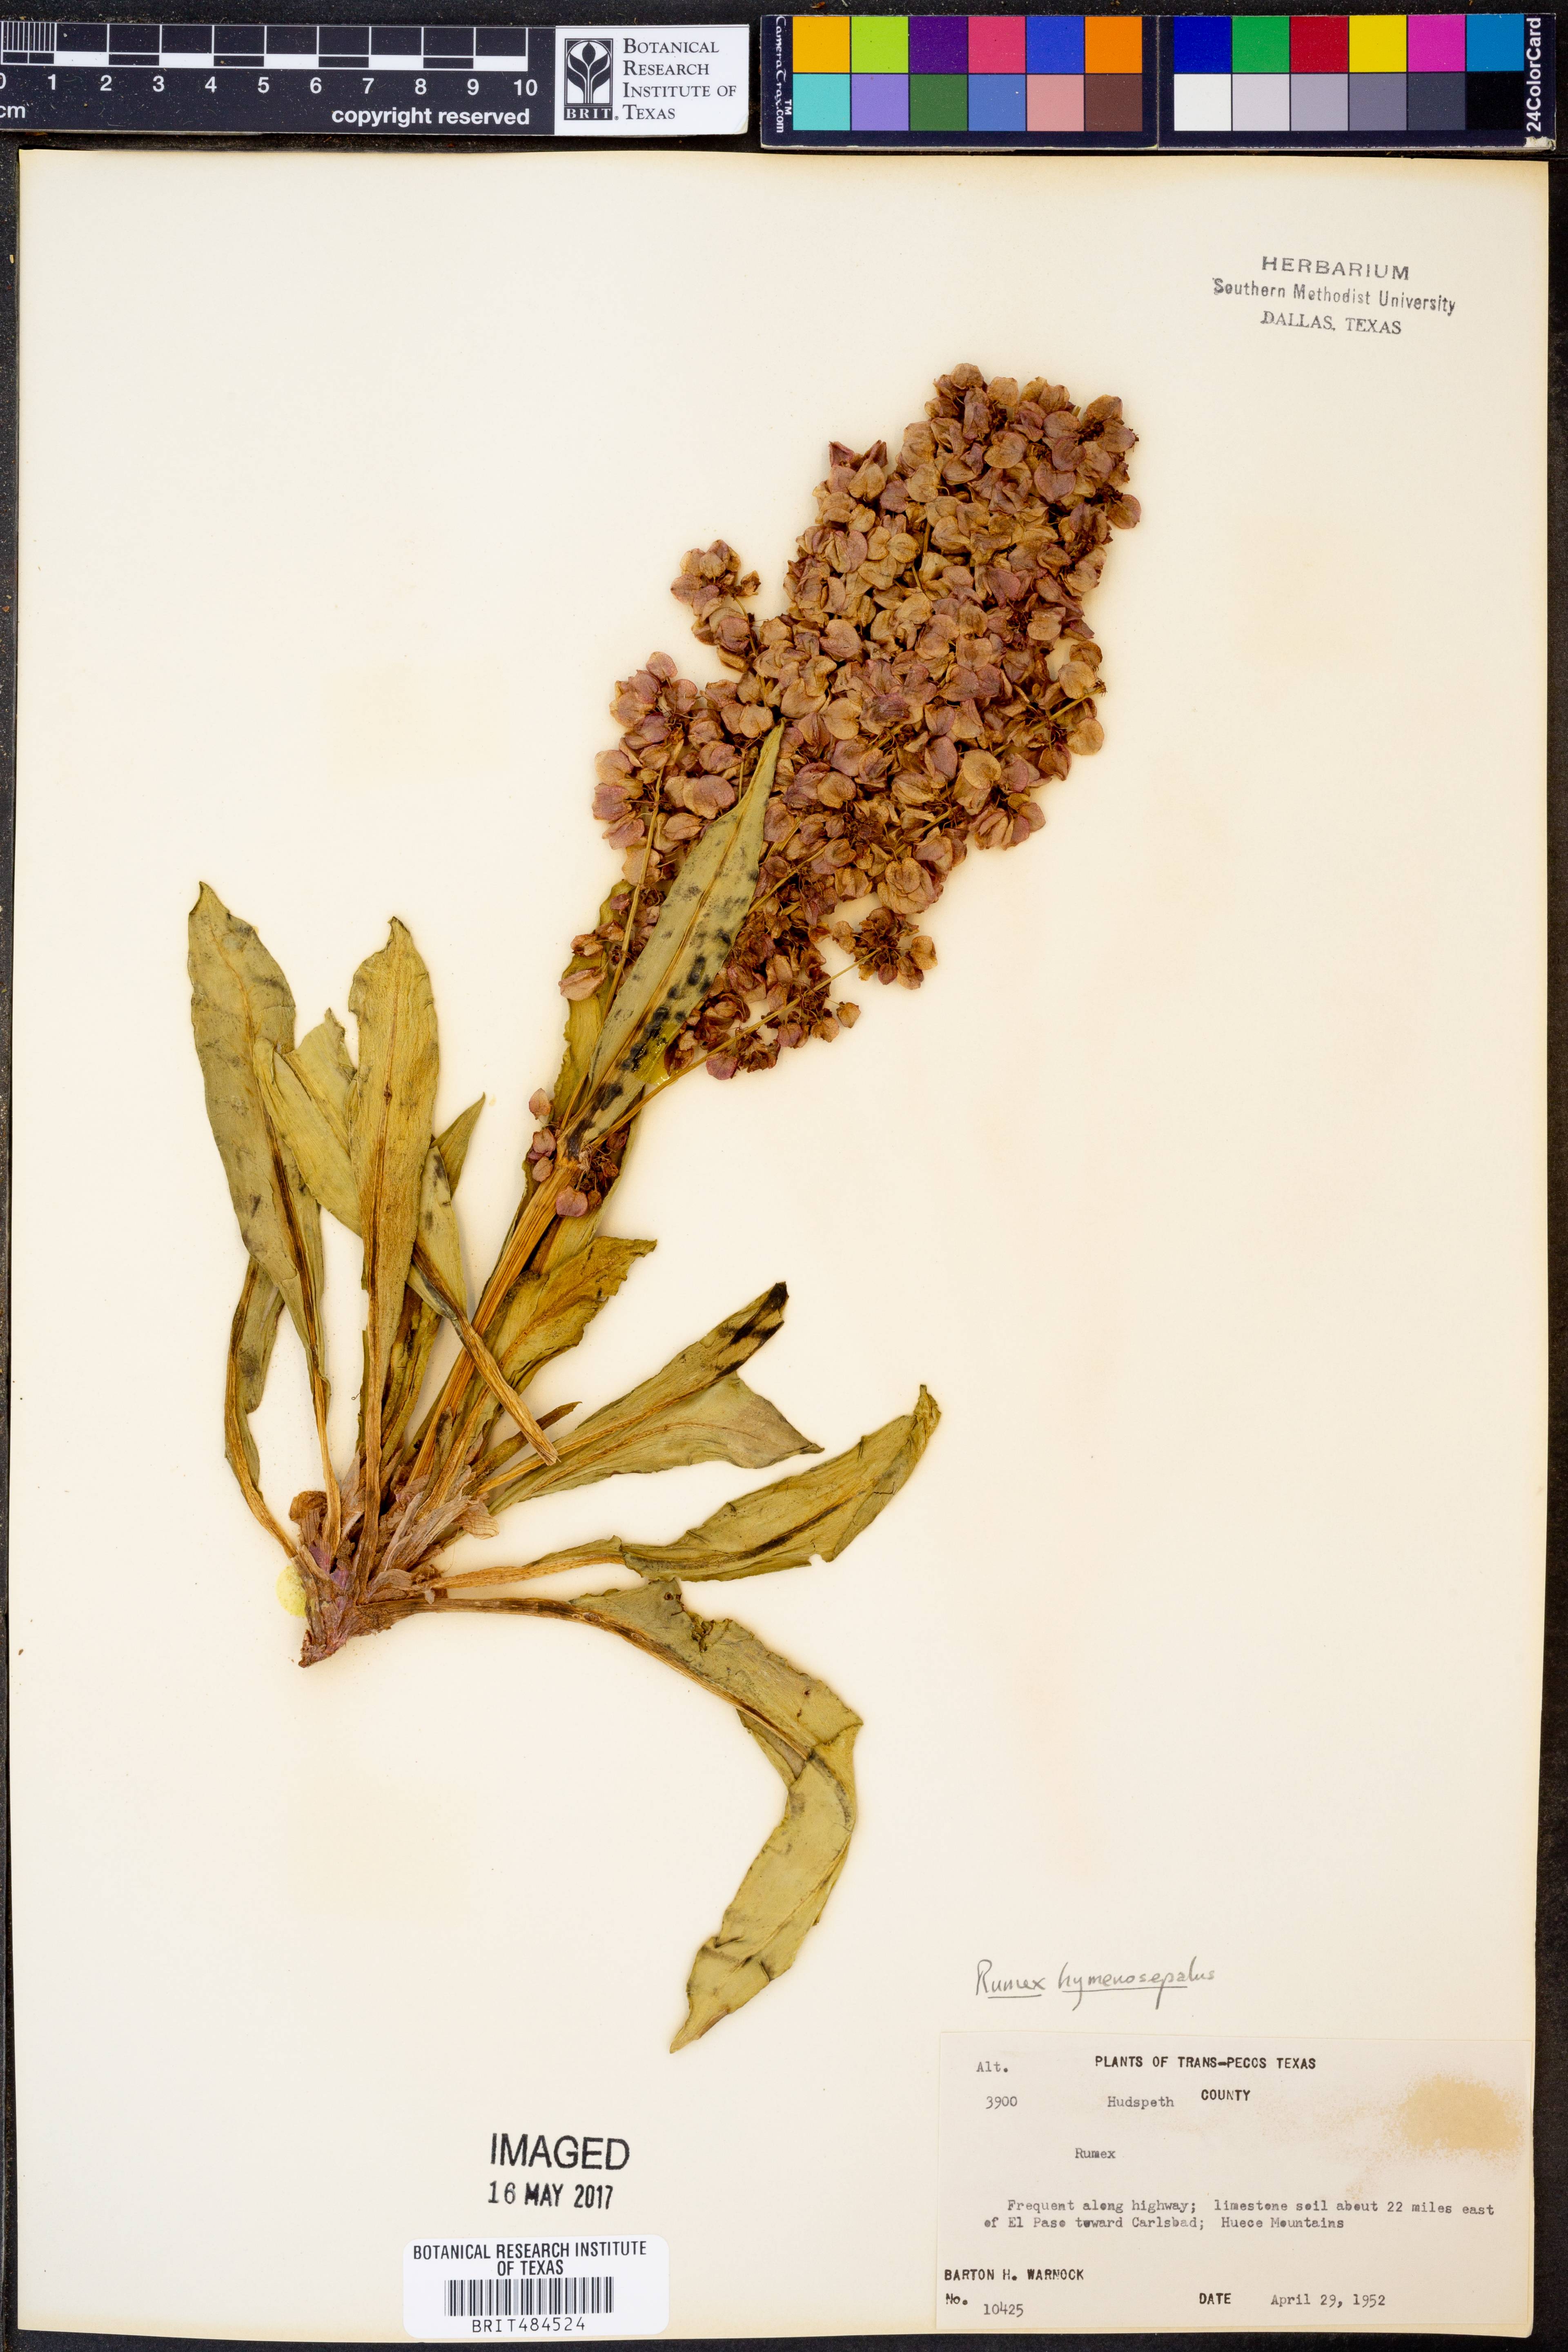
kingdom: Plantae
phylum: Tracheophyta
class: Magnoliopsida
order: Caryophyllales
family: Polygonaceae
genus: Rumex
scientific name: Rumex hymenosepalus
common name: Ganagra
